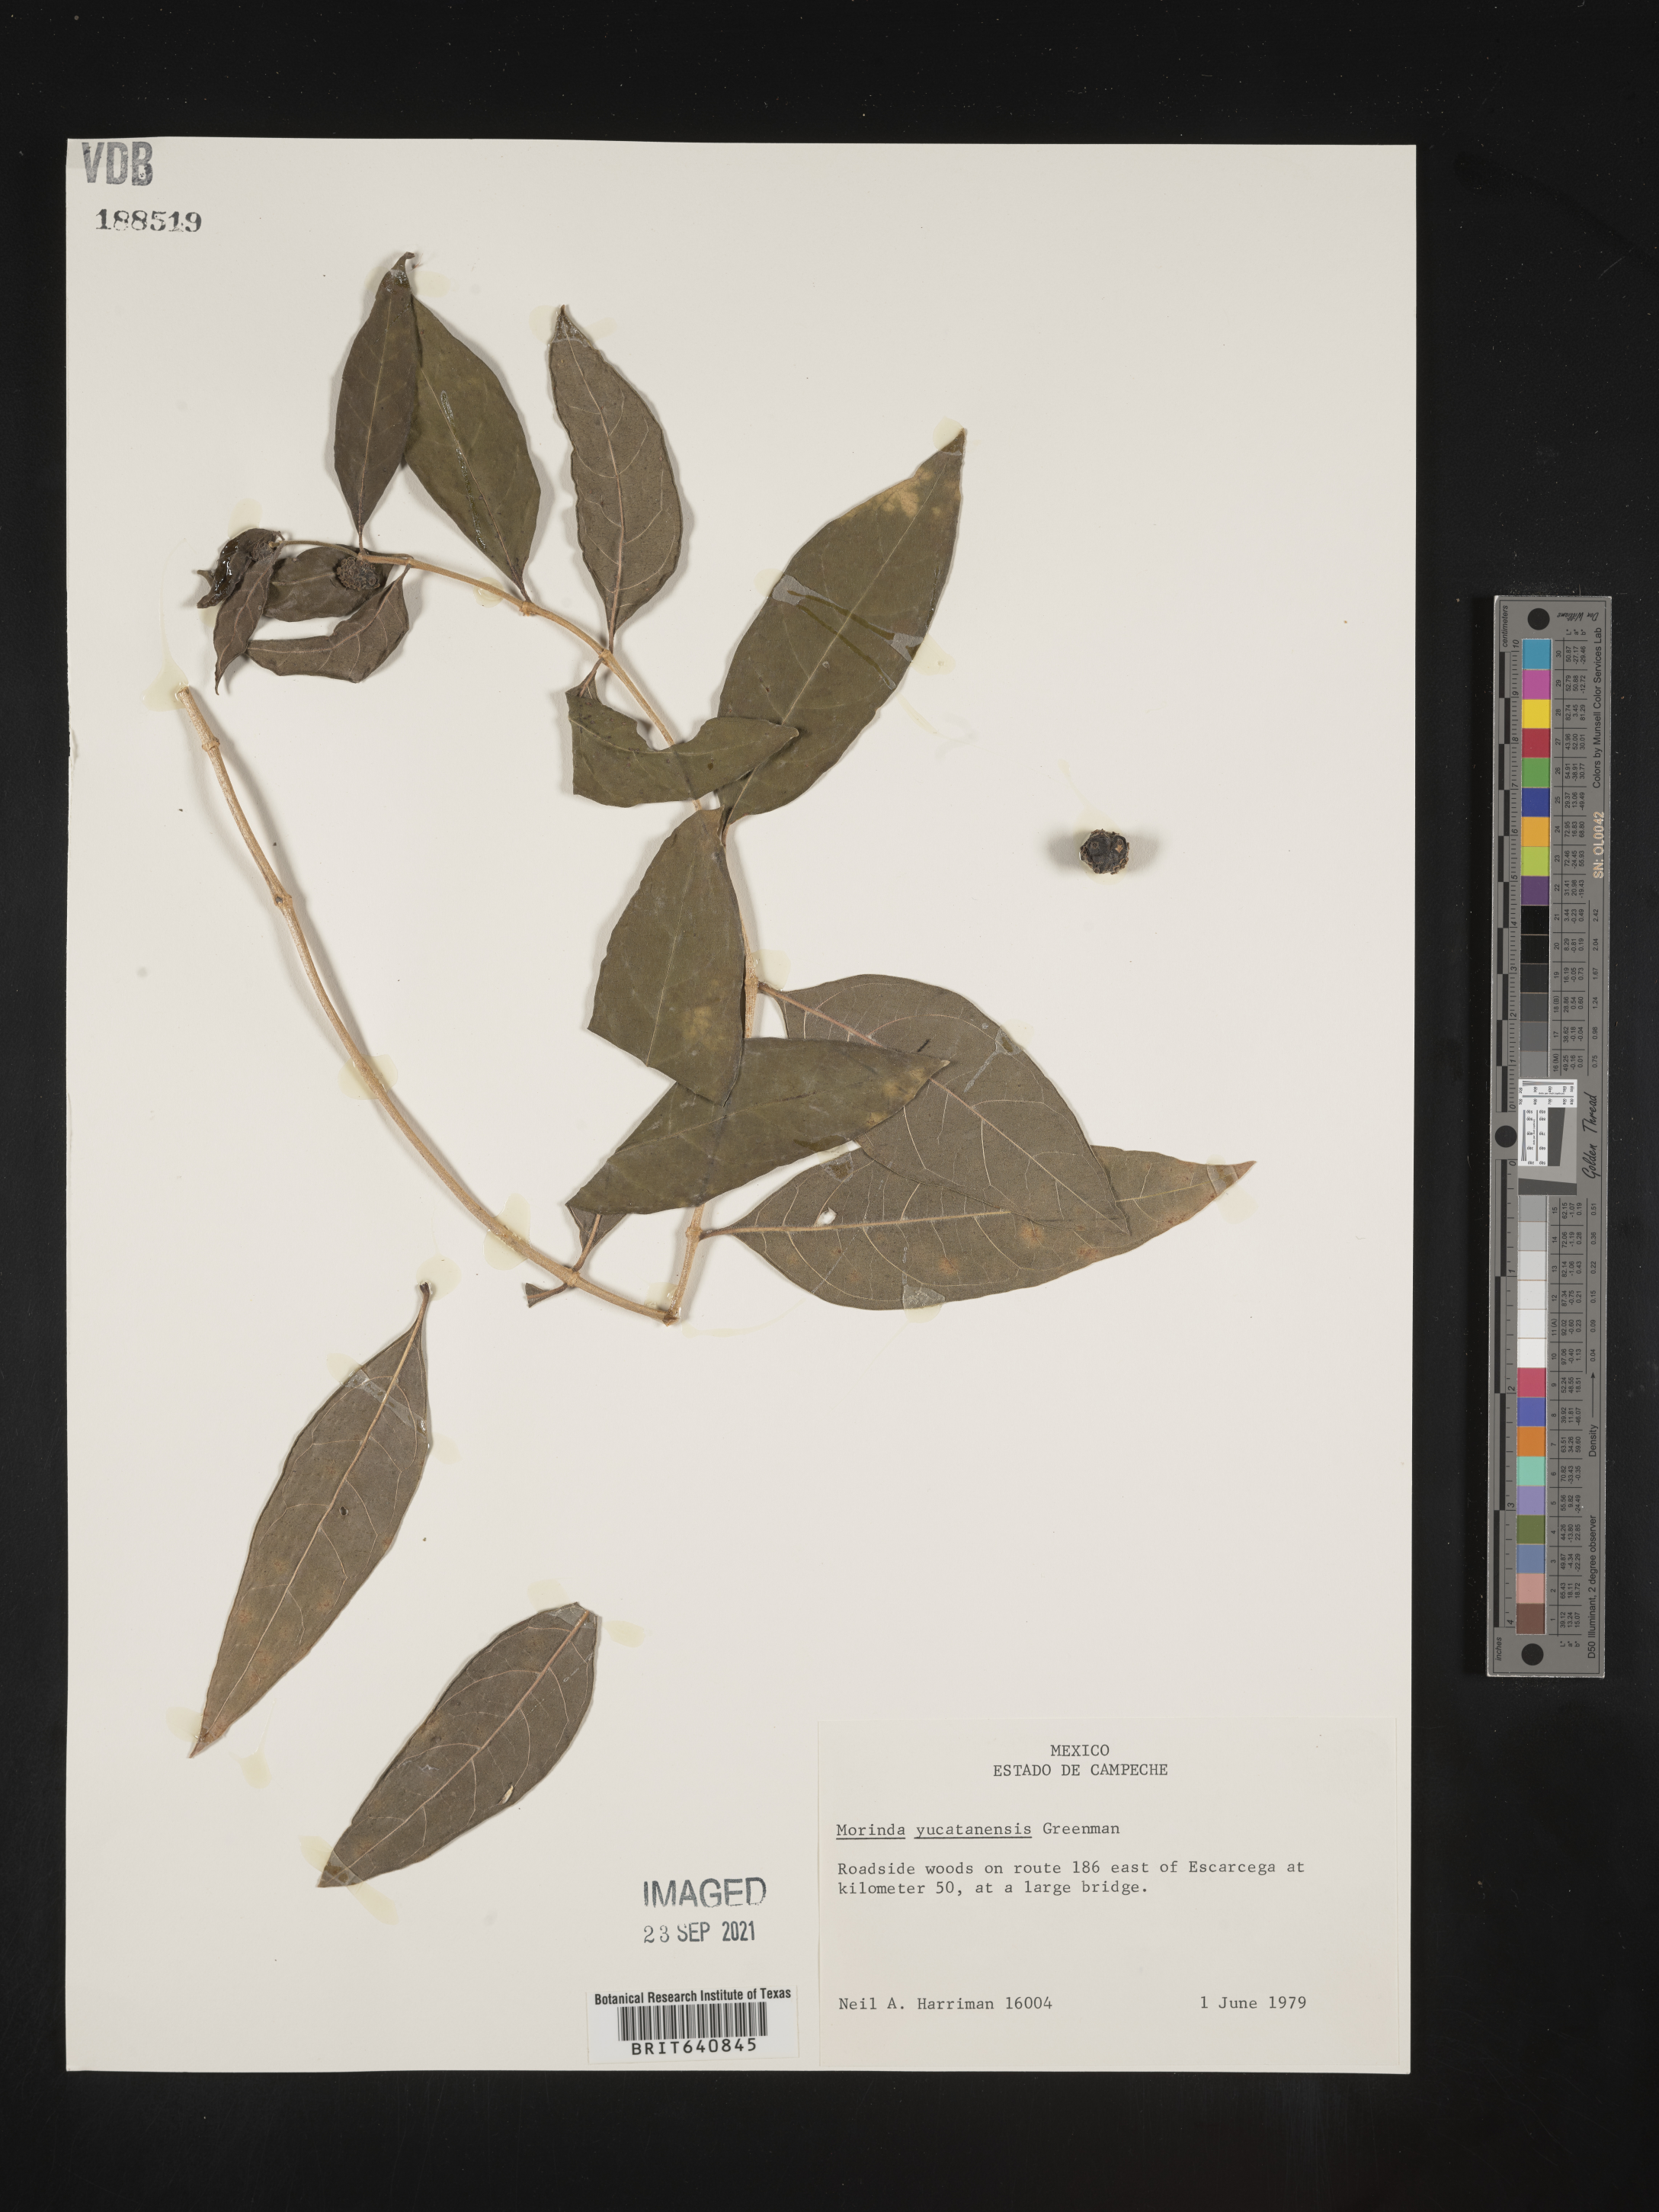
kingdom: Plantae
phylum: Tracheophyta
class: Magnoliopsida
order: Gentianales
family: Rubiaceae
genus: Morinda
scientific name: Morinda royoc
